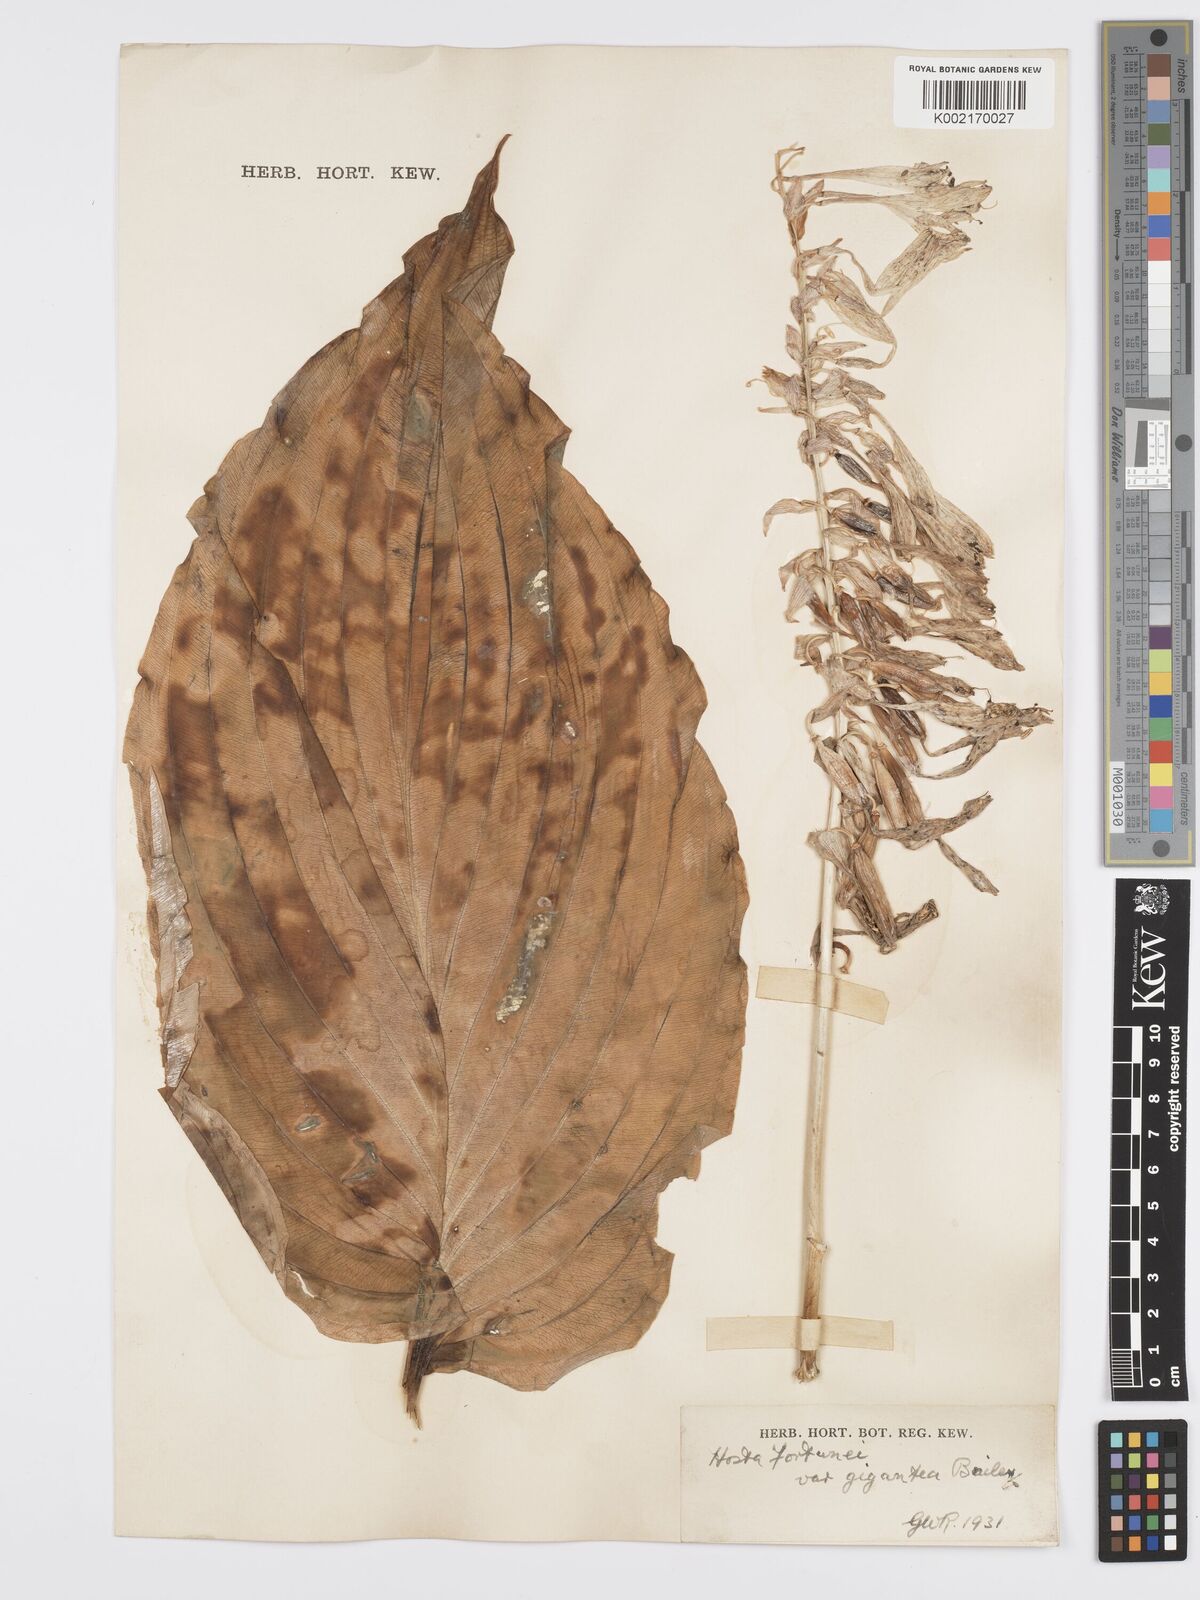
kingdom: Plantae
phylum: Tracheophyta
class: Liliopsida
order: Asparagales
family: Asparagaceae
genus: Hosta
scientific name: Hosta sieboldiana
